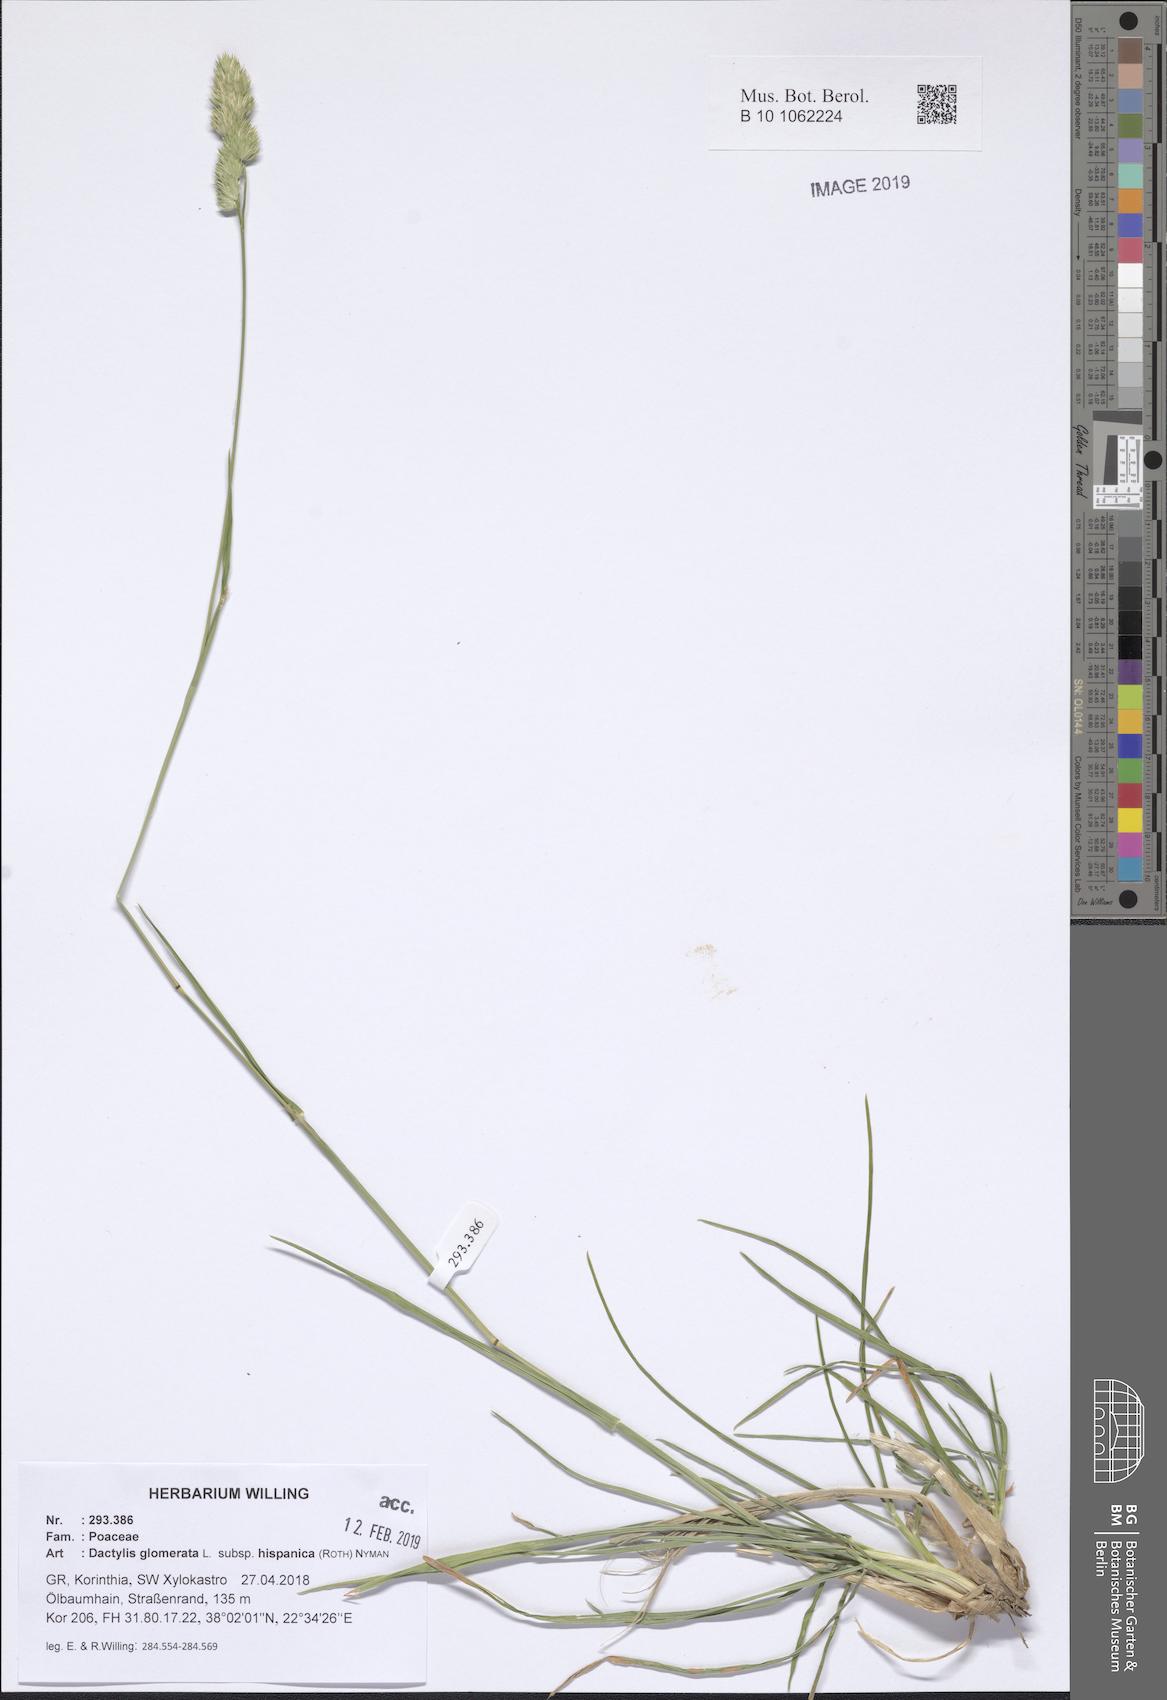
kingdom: Plantae
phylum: Tracheophyta
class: Liliopsida
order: Poales
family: Poaceae
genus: Dactylis
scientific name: Dactylis glomerata
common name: Orchardgrass
